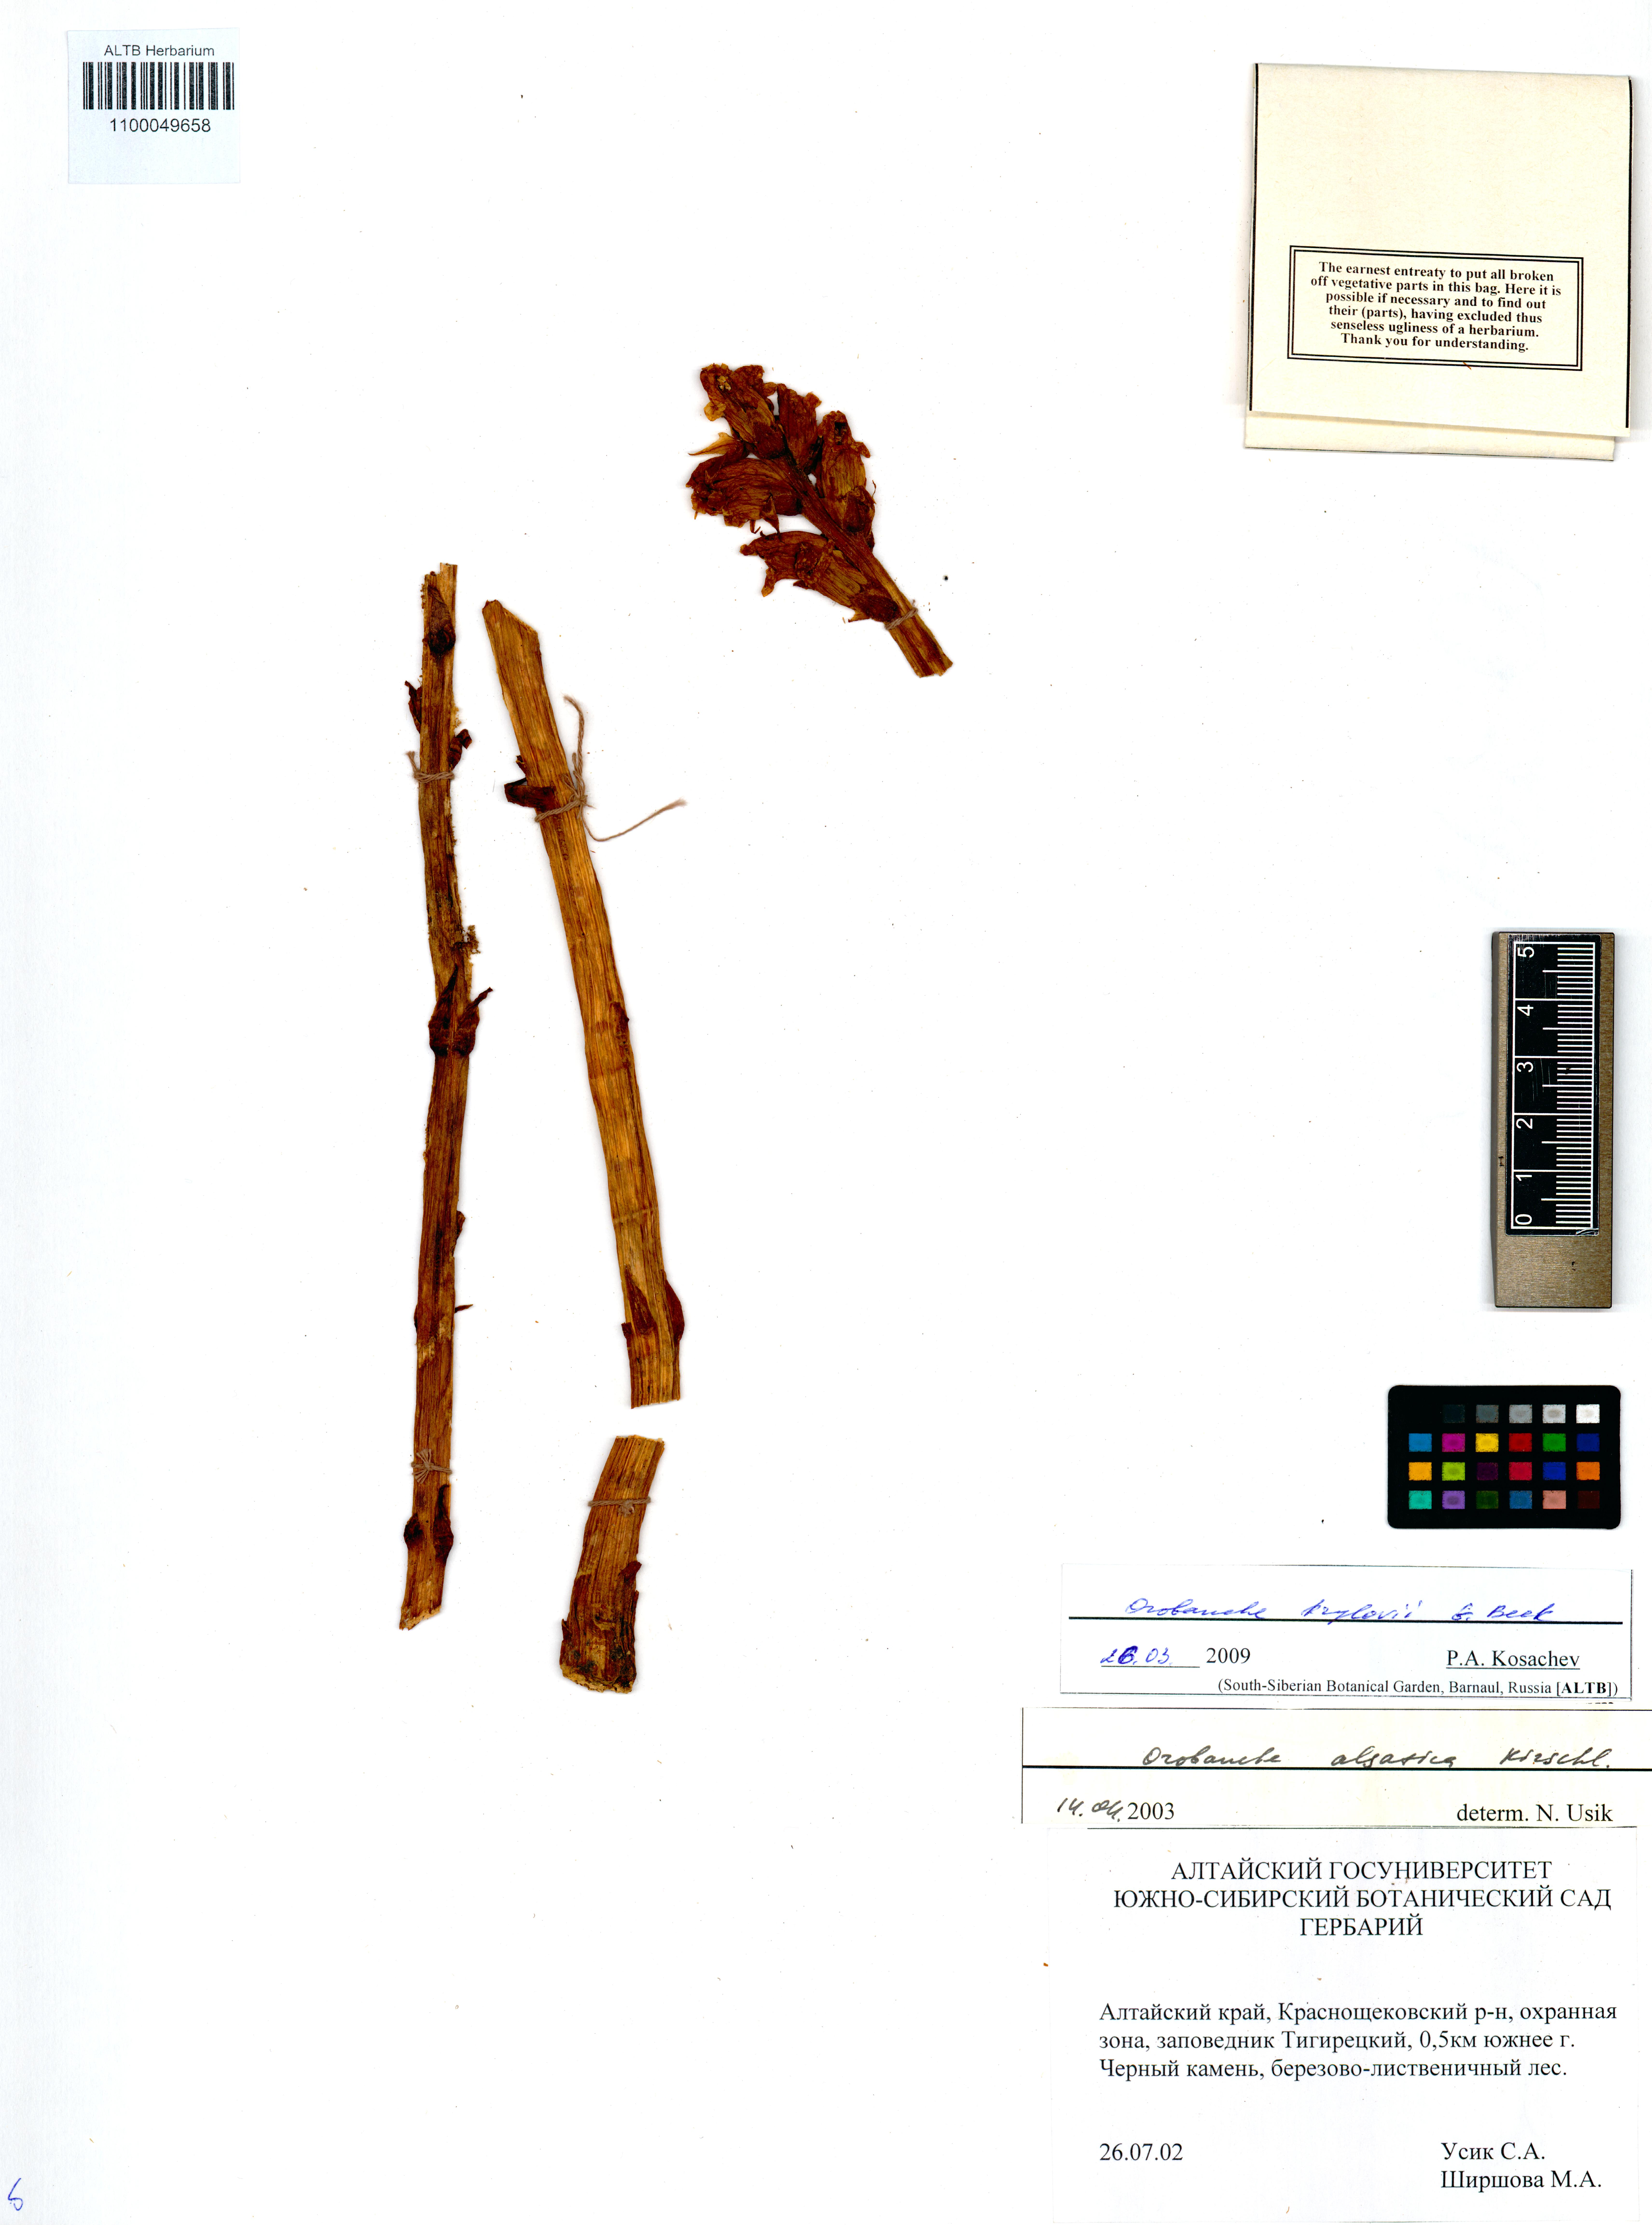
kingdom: Plantae
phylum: Tracheophyta
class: Magnoliopsida
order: Lamiales
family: Orobanchaceae
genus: Orobanche
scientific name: Orobanche krylowii
